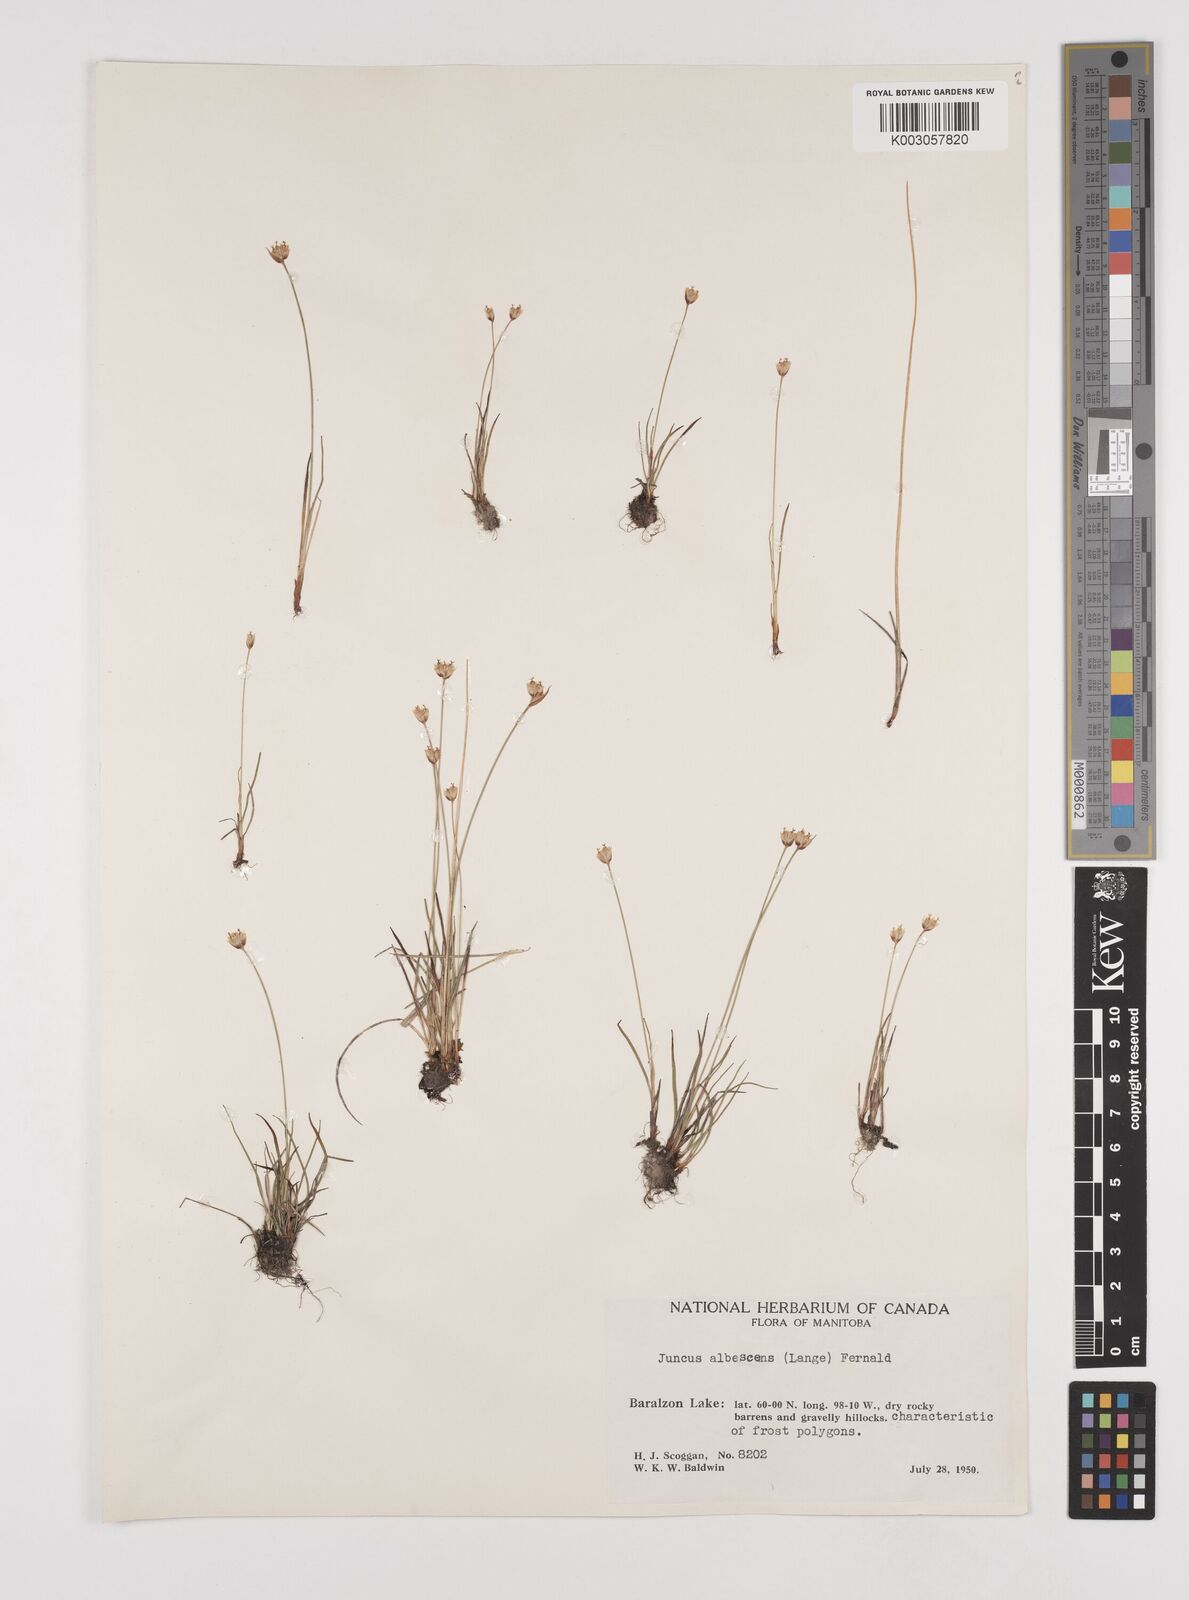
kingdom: Plantae
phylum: Tracheophyta
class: Liliopsida
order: Poales
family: Juncaceae
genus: Juncus
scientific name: Juncus albescens
